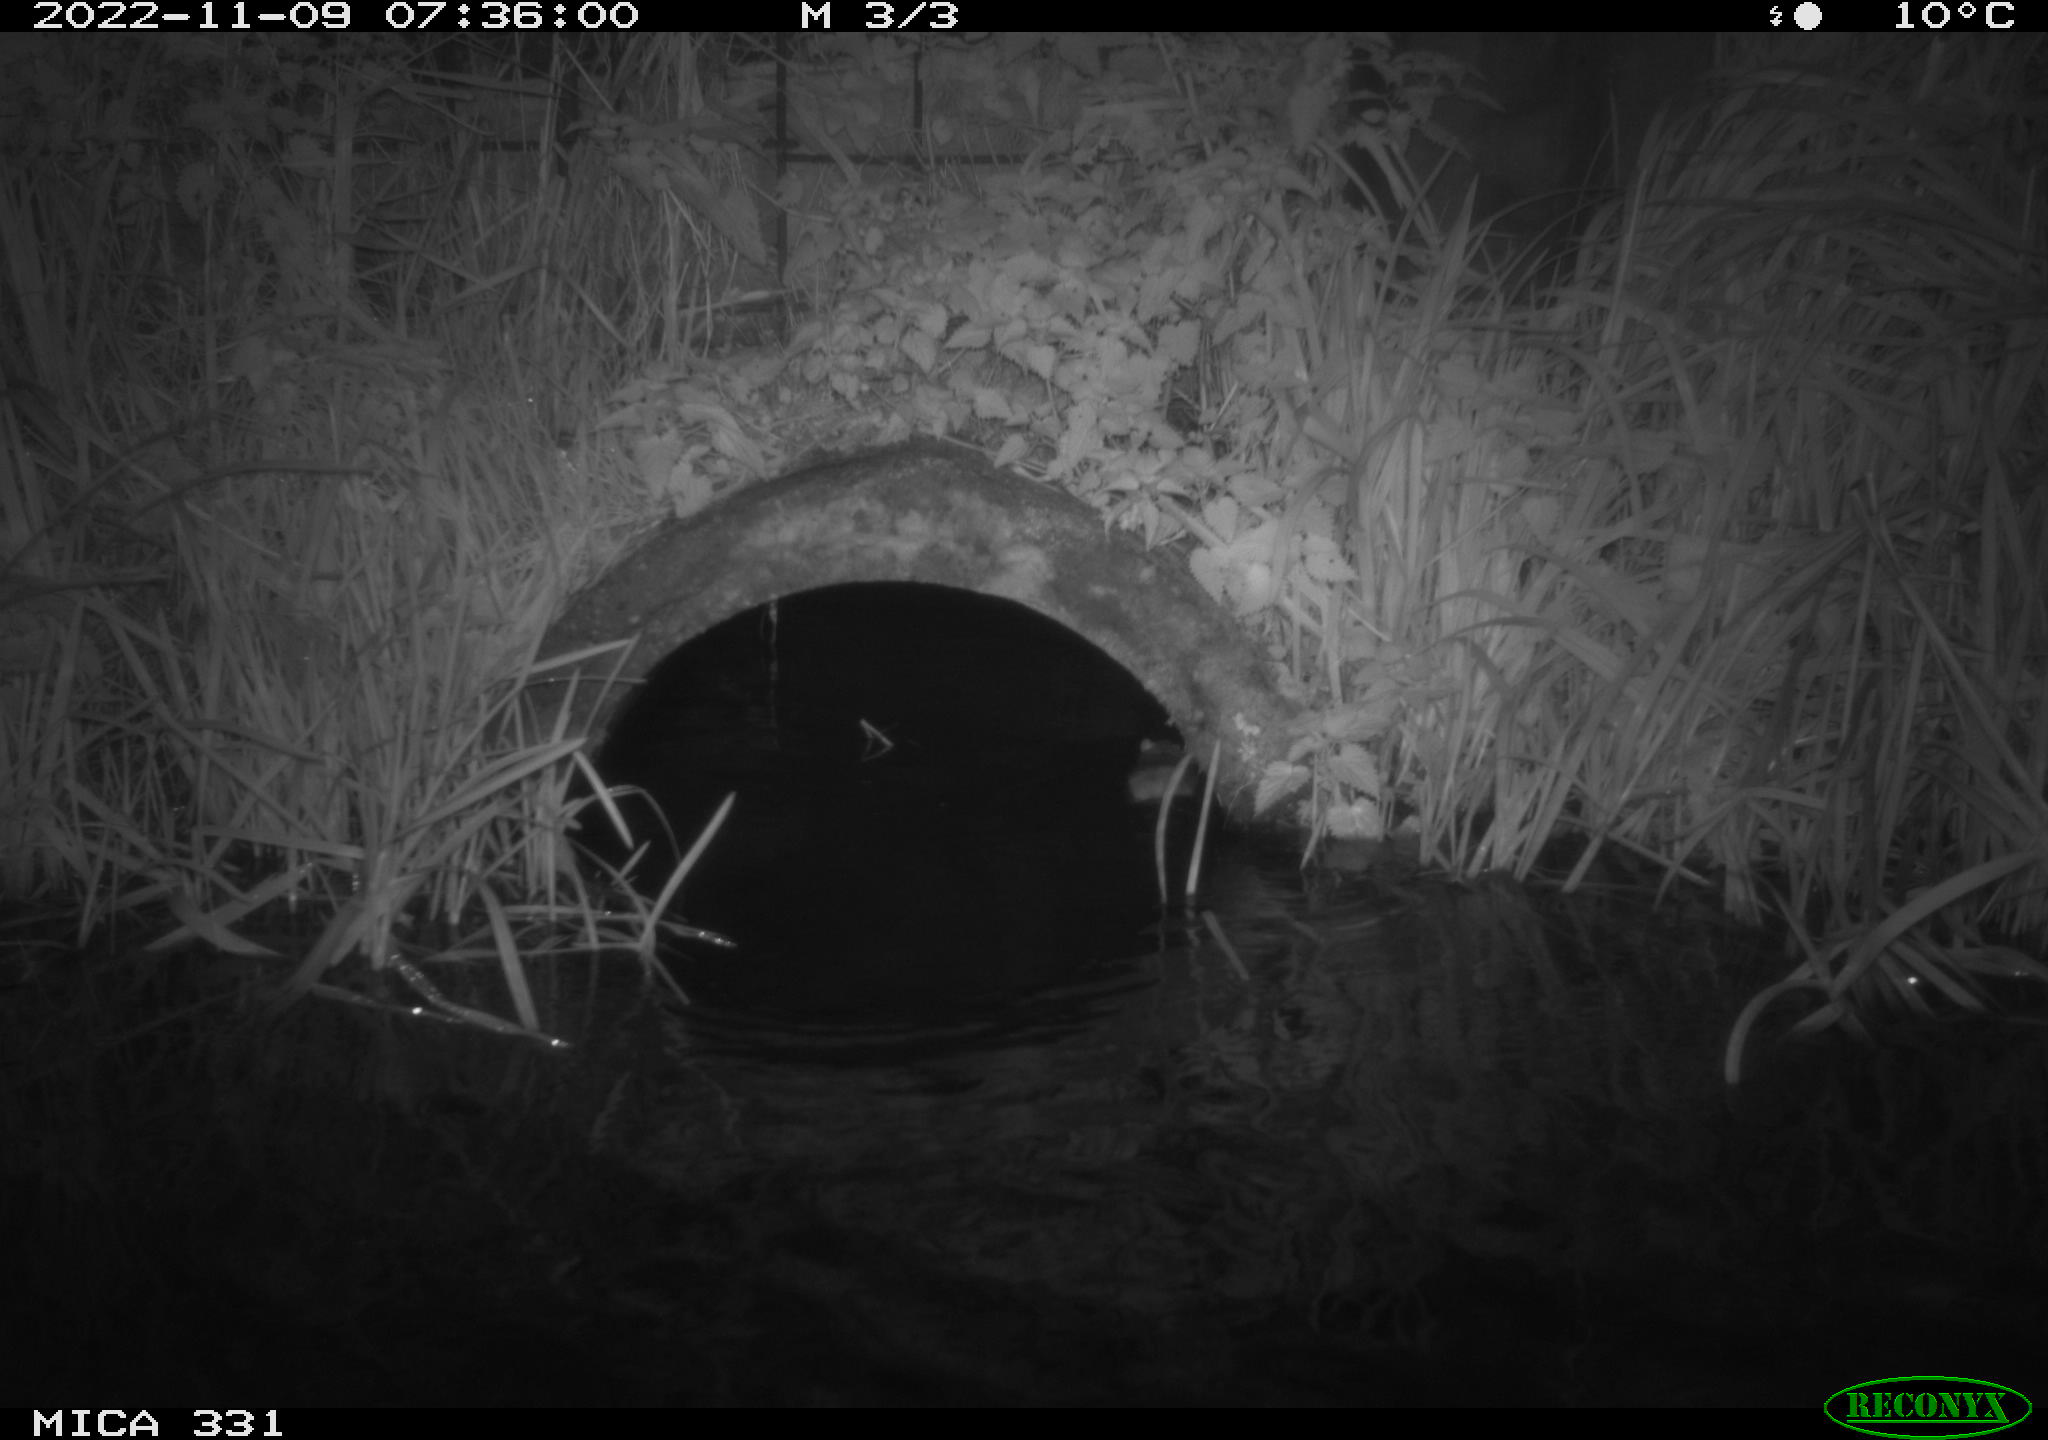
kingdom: Animalia
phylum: Chordata
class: Mammalia
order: Rodentia
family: Muridae
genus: Rattus
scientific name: Rattus norvegicus
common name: Brown rat
